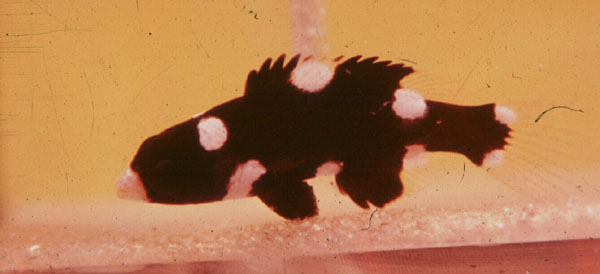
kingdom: Animalia
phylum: Chordata
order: Perciformes
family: Labridae
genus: Bodianus
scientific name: Bodianus axillaris
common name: Axilspot hogfish
